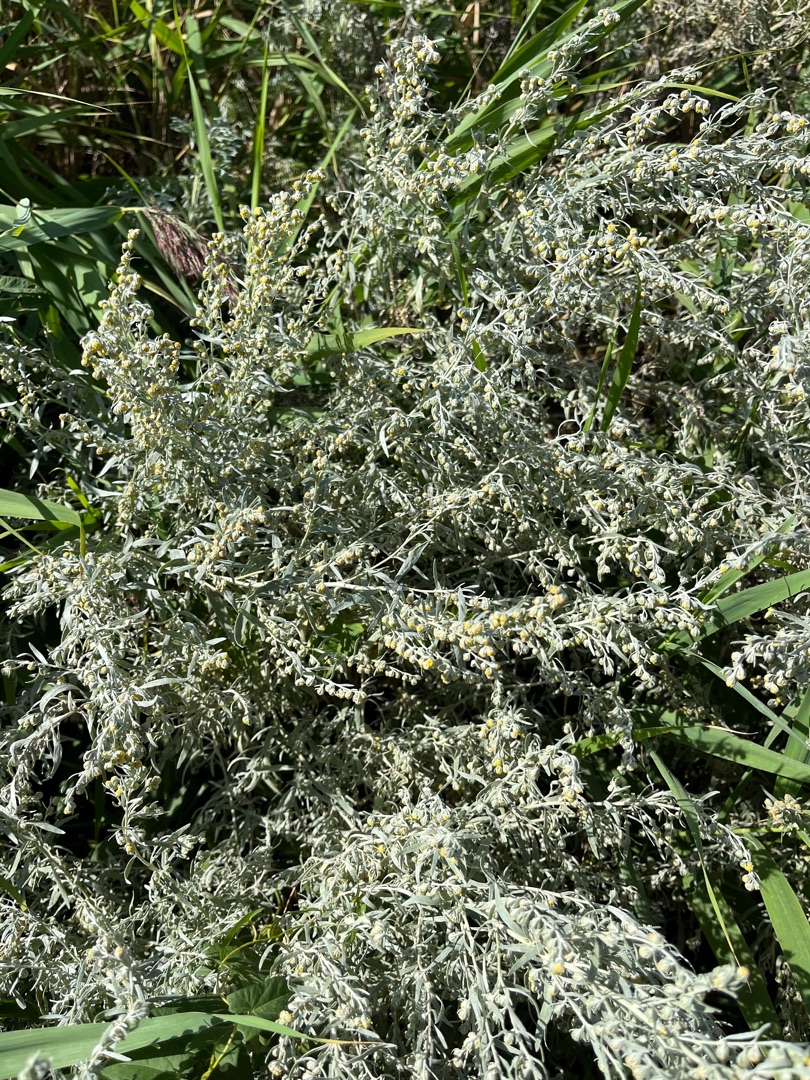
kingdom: Plantae
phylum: Tracheophyta
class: Magnoliopsida
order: Asterales
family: Asteraceae
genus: Artemisia
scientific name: Artemisia maritima
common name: Strandmalurt
